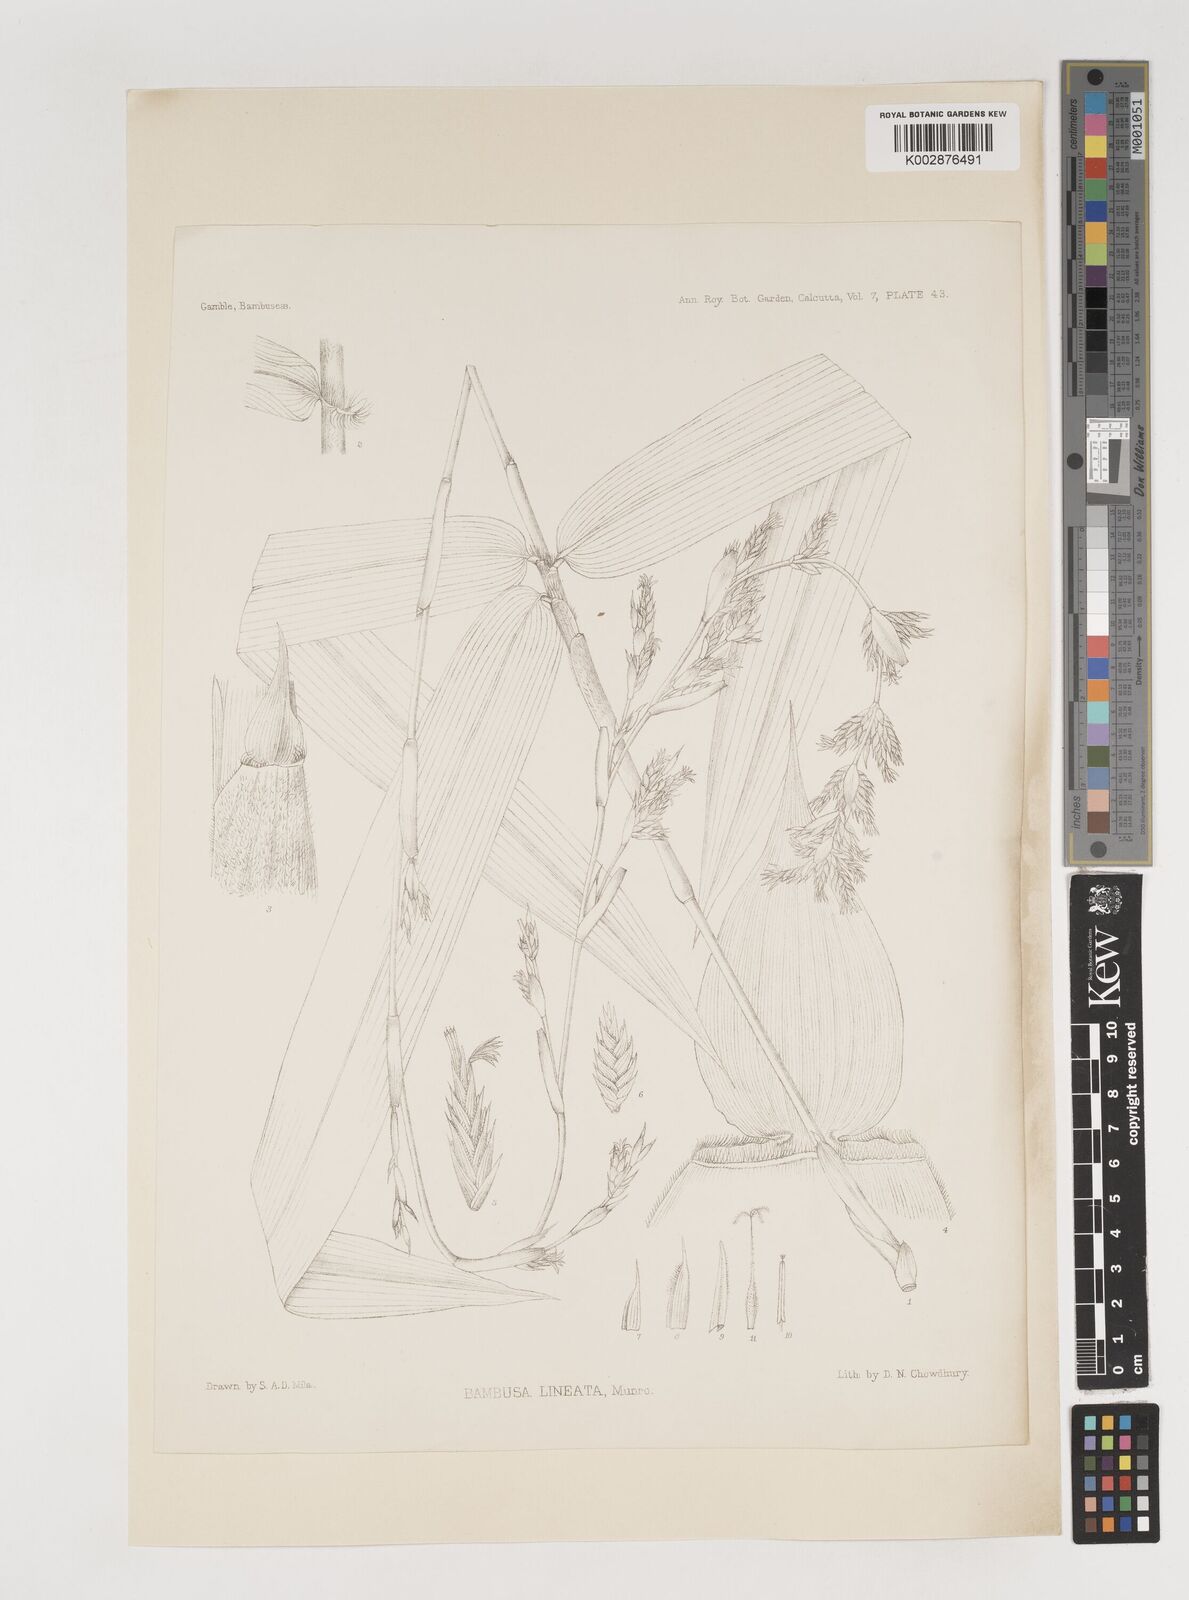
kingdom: Plantae
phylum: Tracheophyta
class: Liliopsida
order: Poales
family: Poaceae
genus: Neololeba
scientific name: Neololeba amahussana
